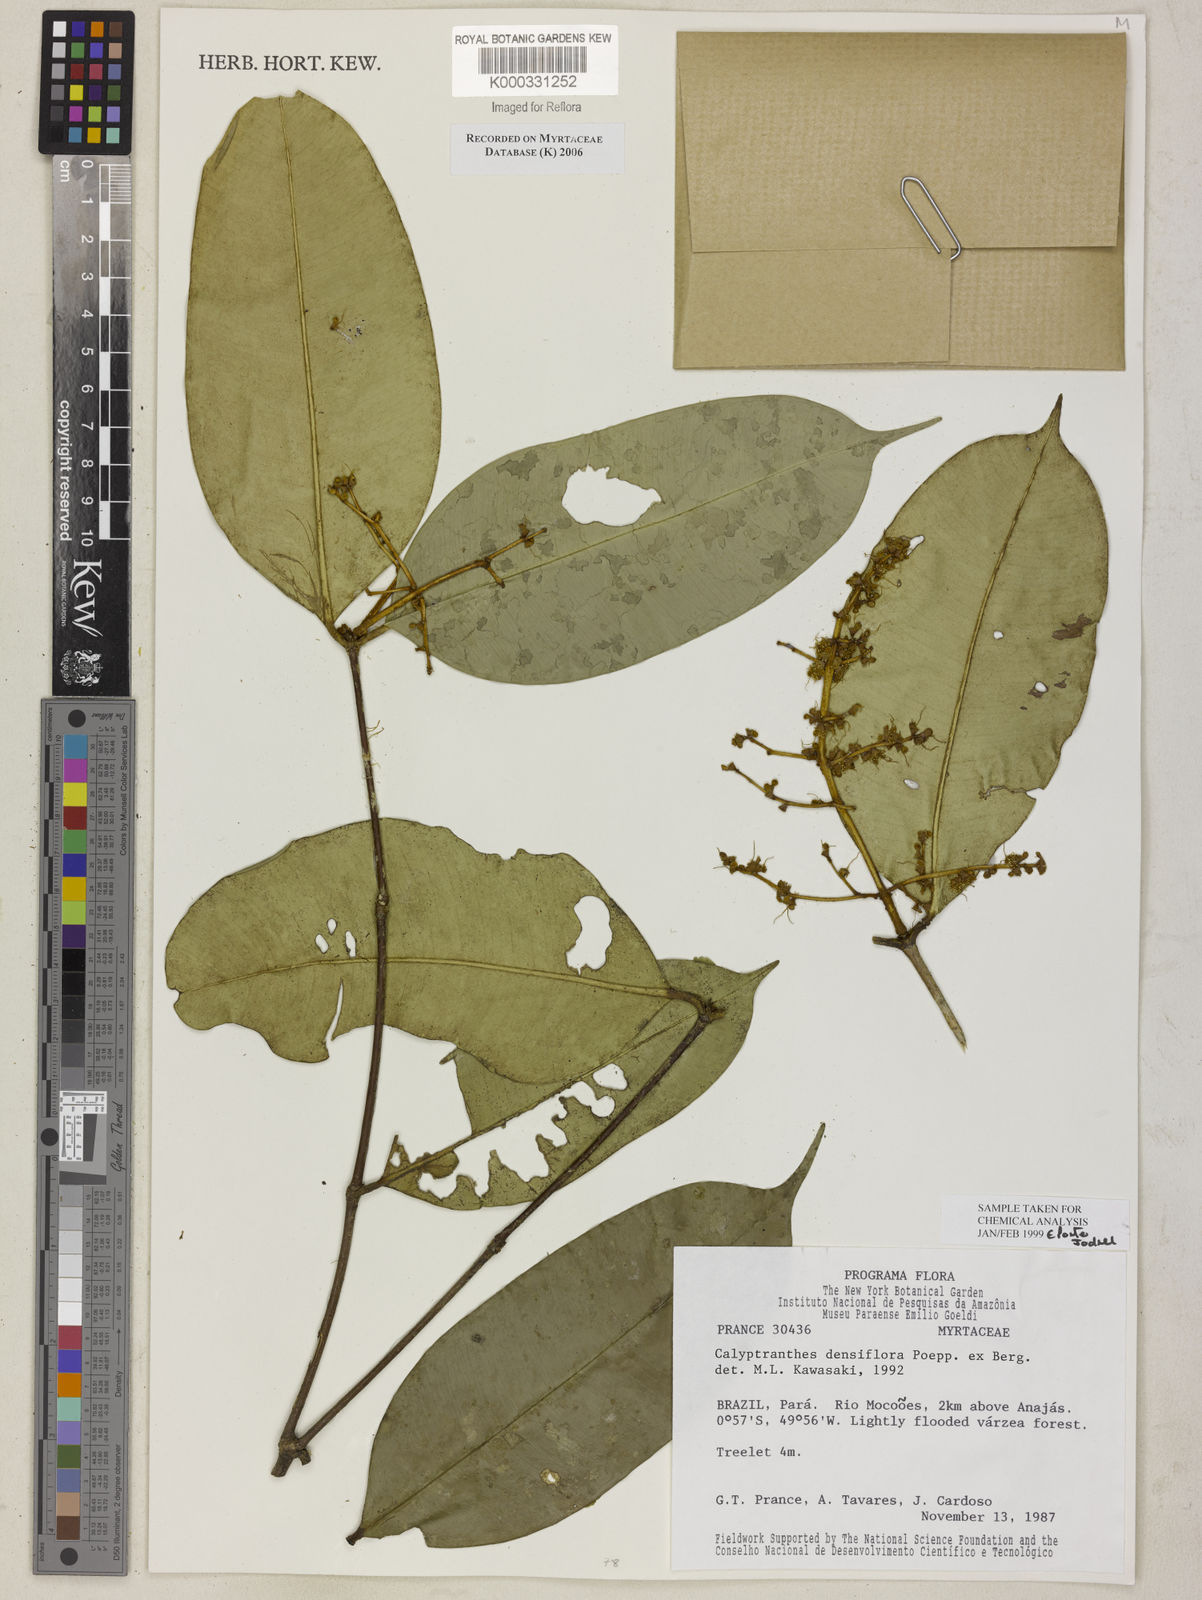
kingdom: Plantae
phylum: Tracheophyta
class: Magnoliopsida
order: Myrtales
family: Myrtaceae
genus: Myrcia
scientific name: Myrcia densiflora
